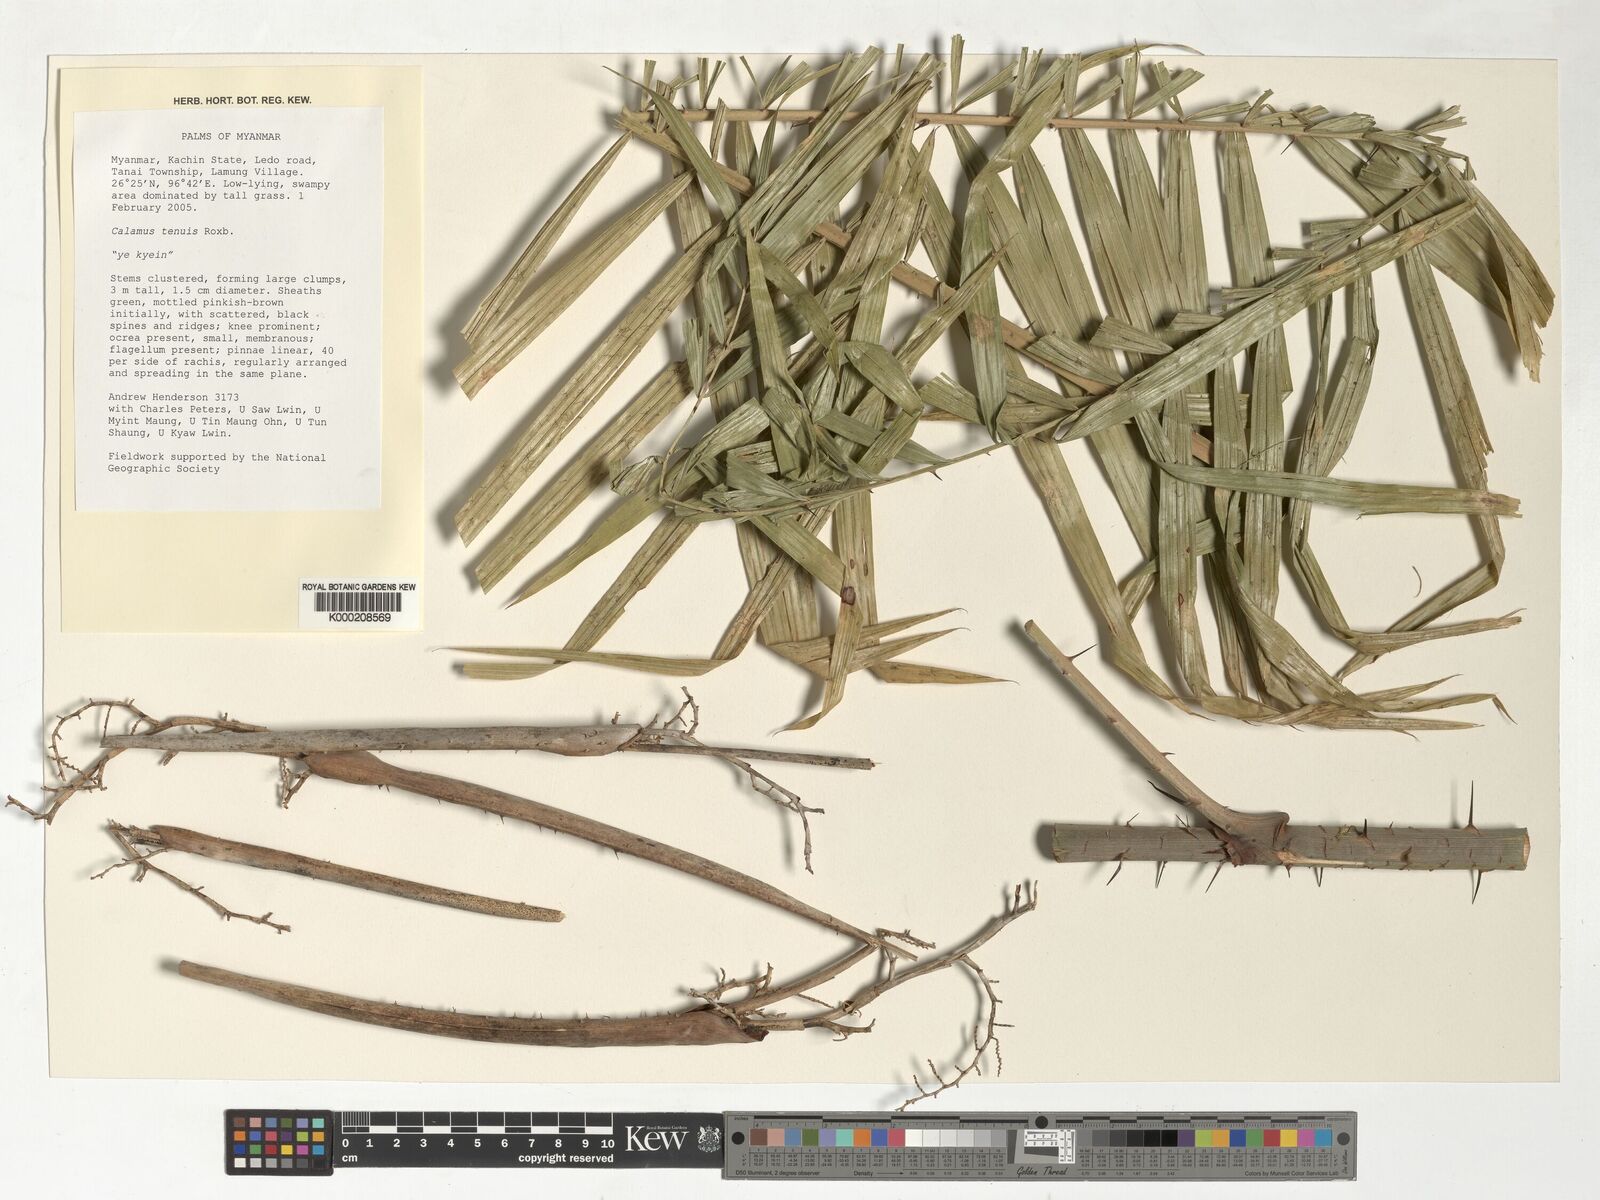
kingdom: Plantae
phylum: Tracheophyta
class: Liliopsida
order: Arecales
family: Arecaceae
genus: Calamus
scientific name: Calamus tenuis
